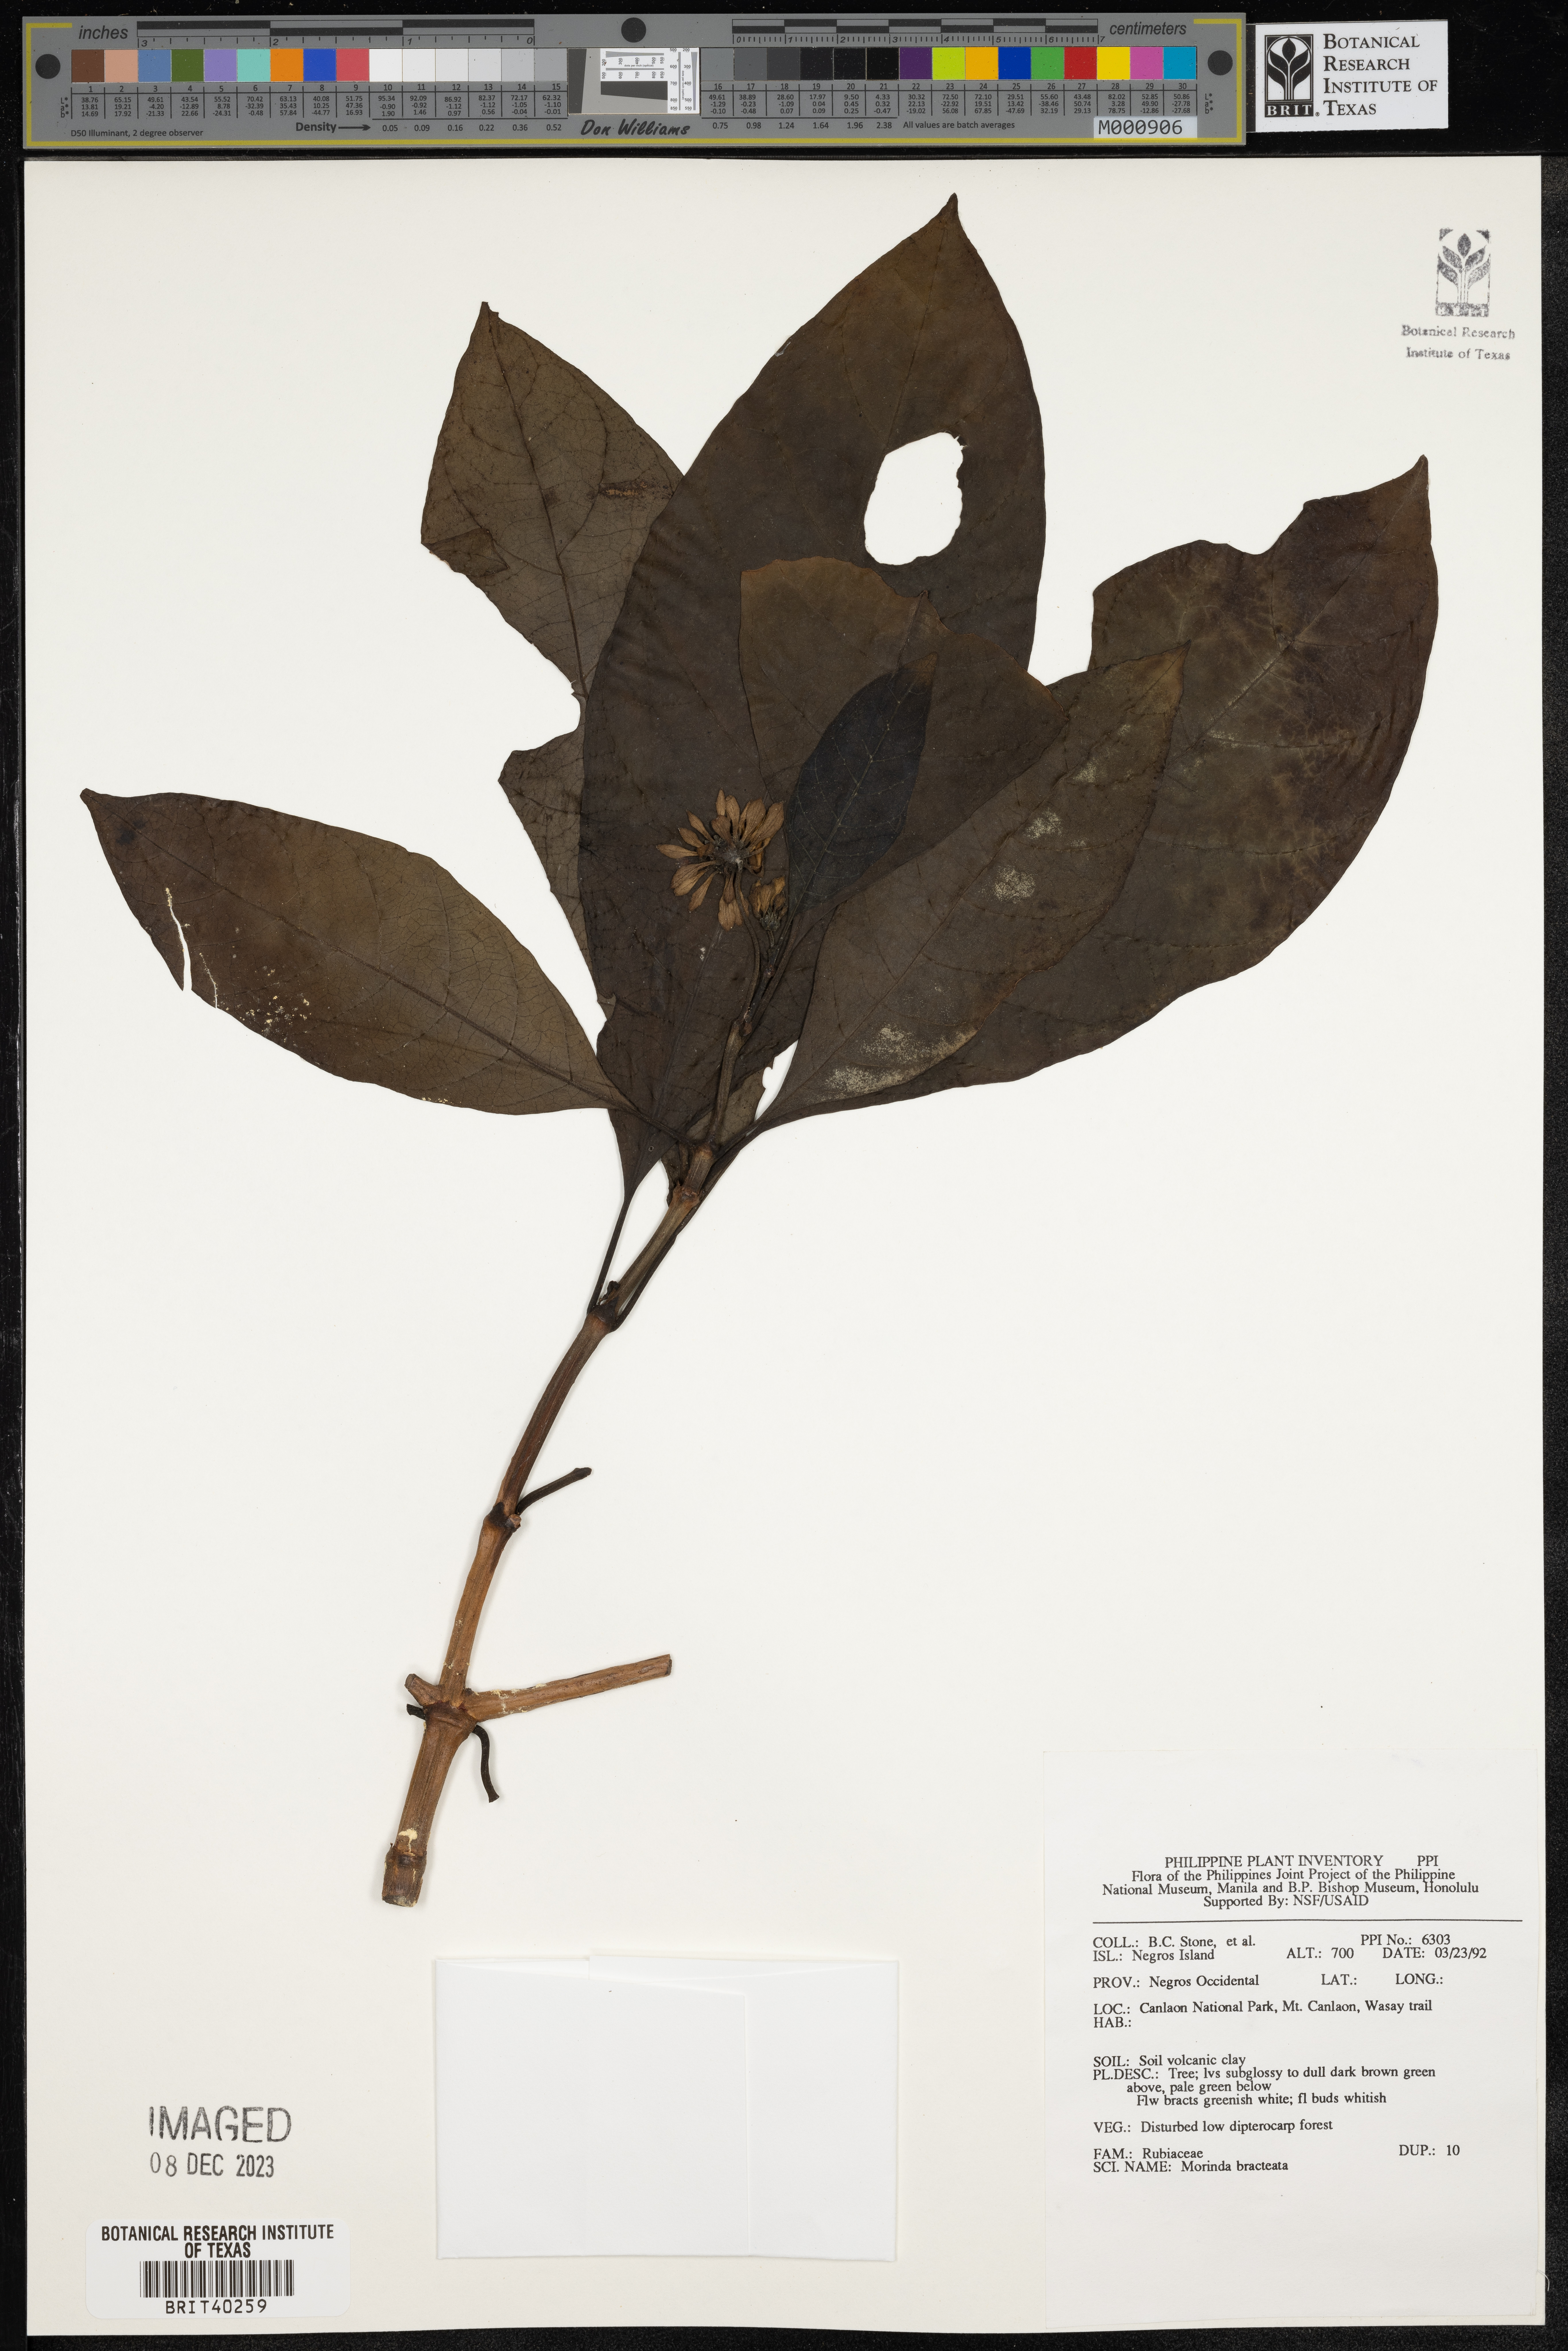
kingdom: Plantae
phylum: Tracheophyta
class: Magnoliopsida
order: Gentianales
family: Rubiaceae
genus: Morinda
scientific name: Morinda bracteata
